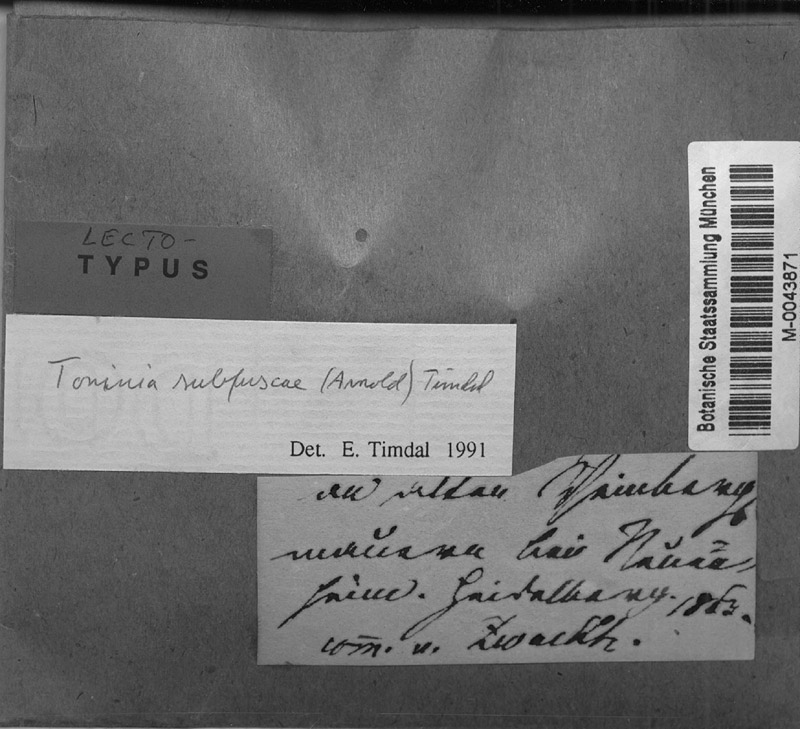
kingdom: Fungi
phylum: Ascomycota
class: Lecanoromycetes
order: Lecanorales
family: Lecanoraceae
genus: Lecanora
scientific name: Lecanora
